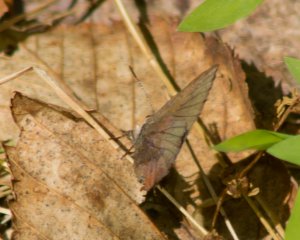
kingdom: Animalia
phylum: Arthropoda
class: Insecta
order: Lepidoptera
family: Lycaenidae
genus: Incisalia
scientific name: Incisalia irioides
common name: Brown Elfin
